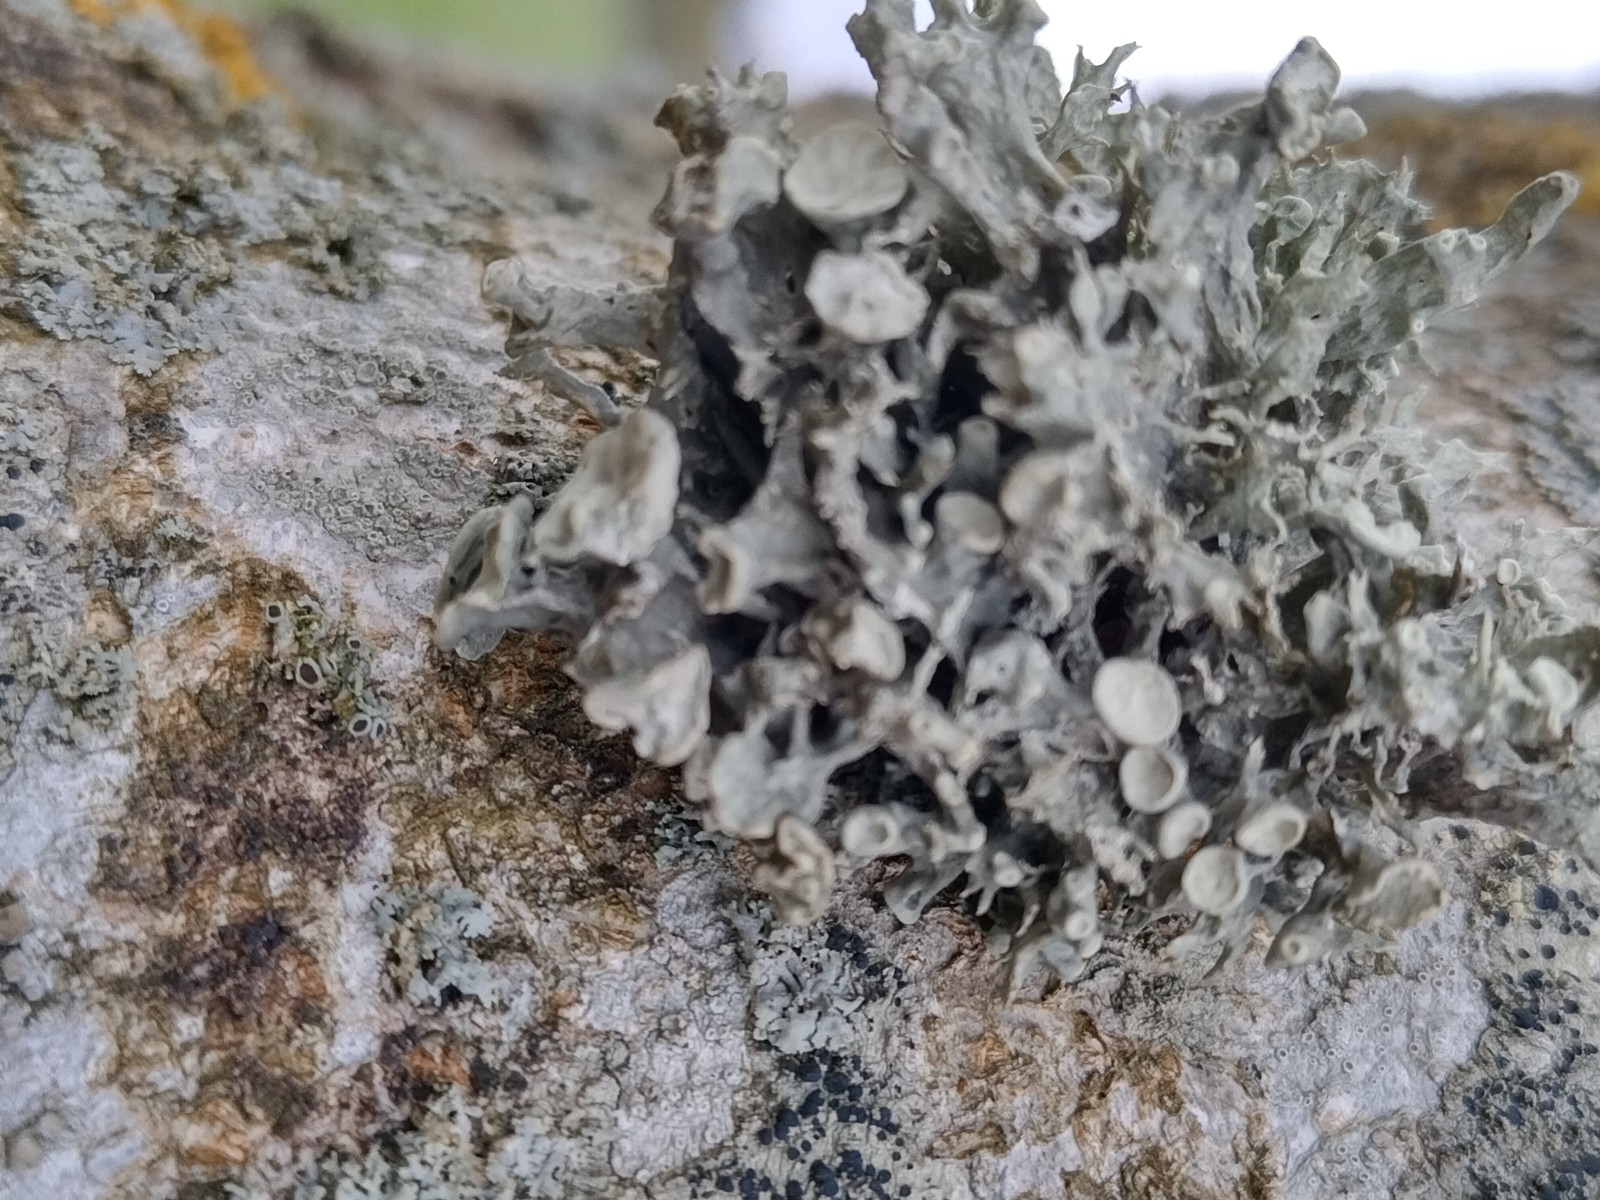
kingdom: Fungi
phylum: Ascomycota
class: Lecanoromycetes
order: Lecanorales
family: Ramalinaceae
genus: Ramalina
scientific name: Ramalina fastigiata
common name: tue-grenlav
